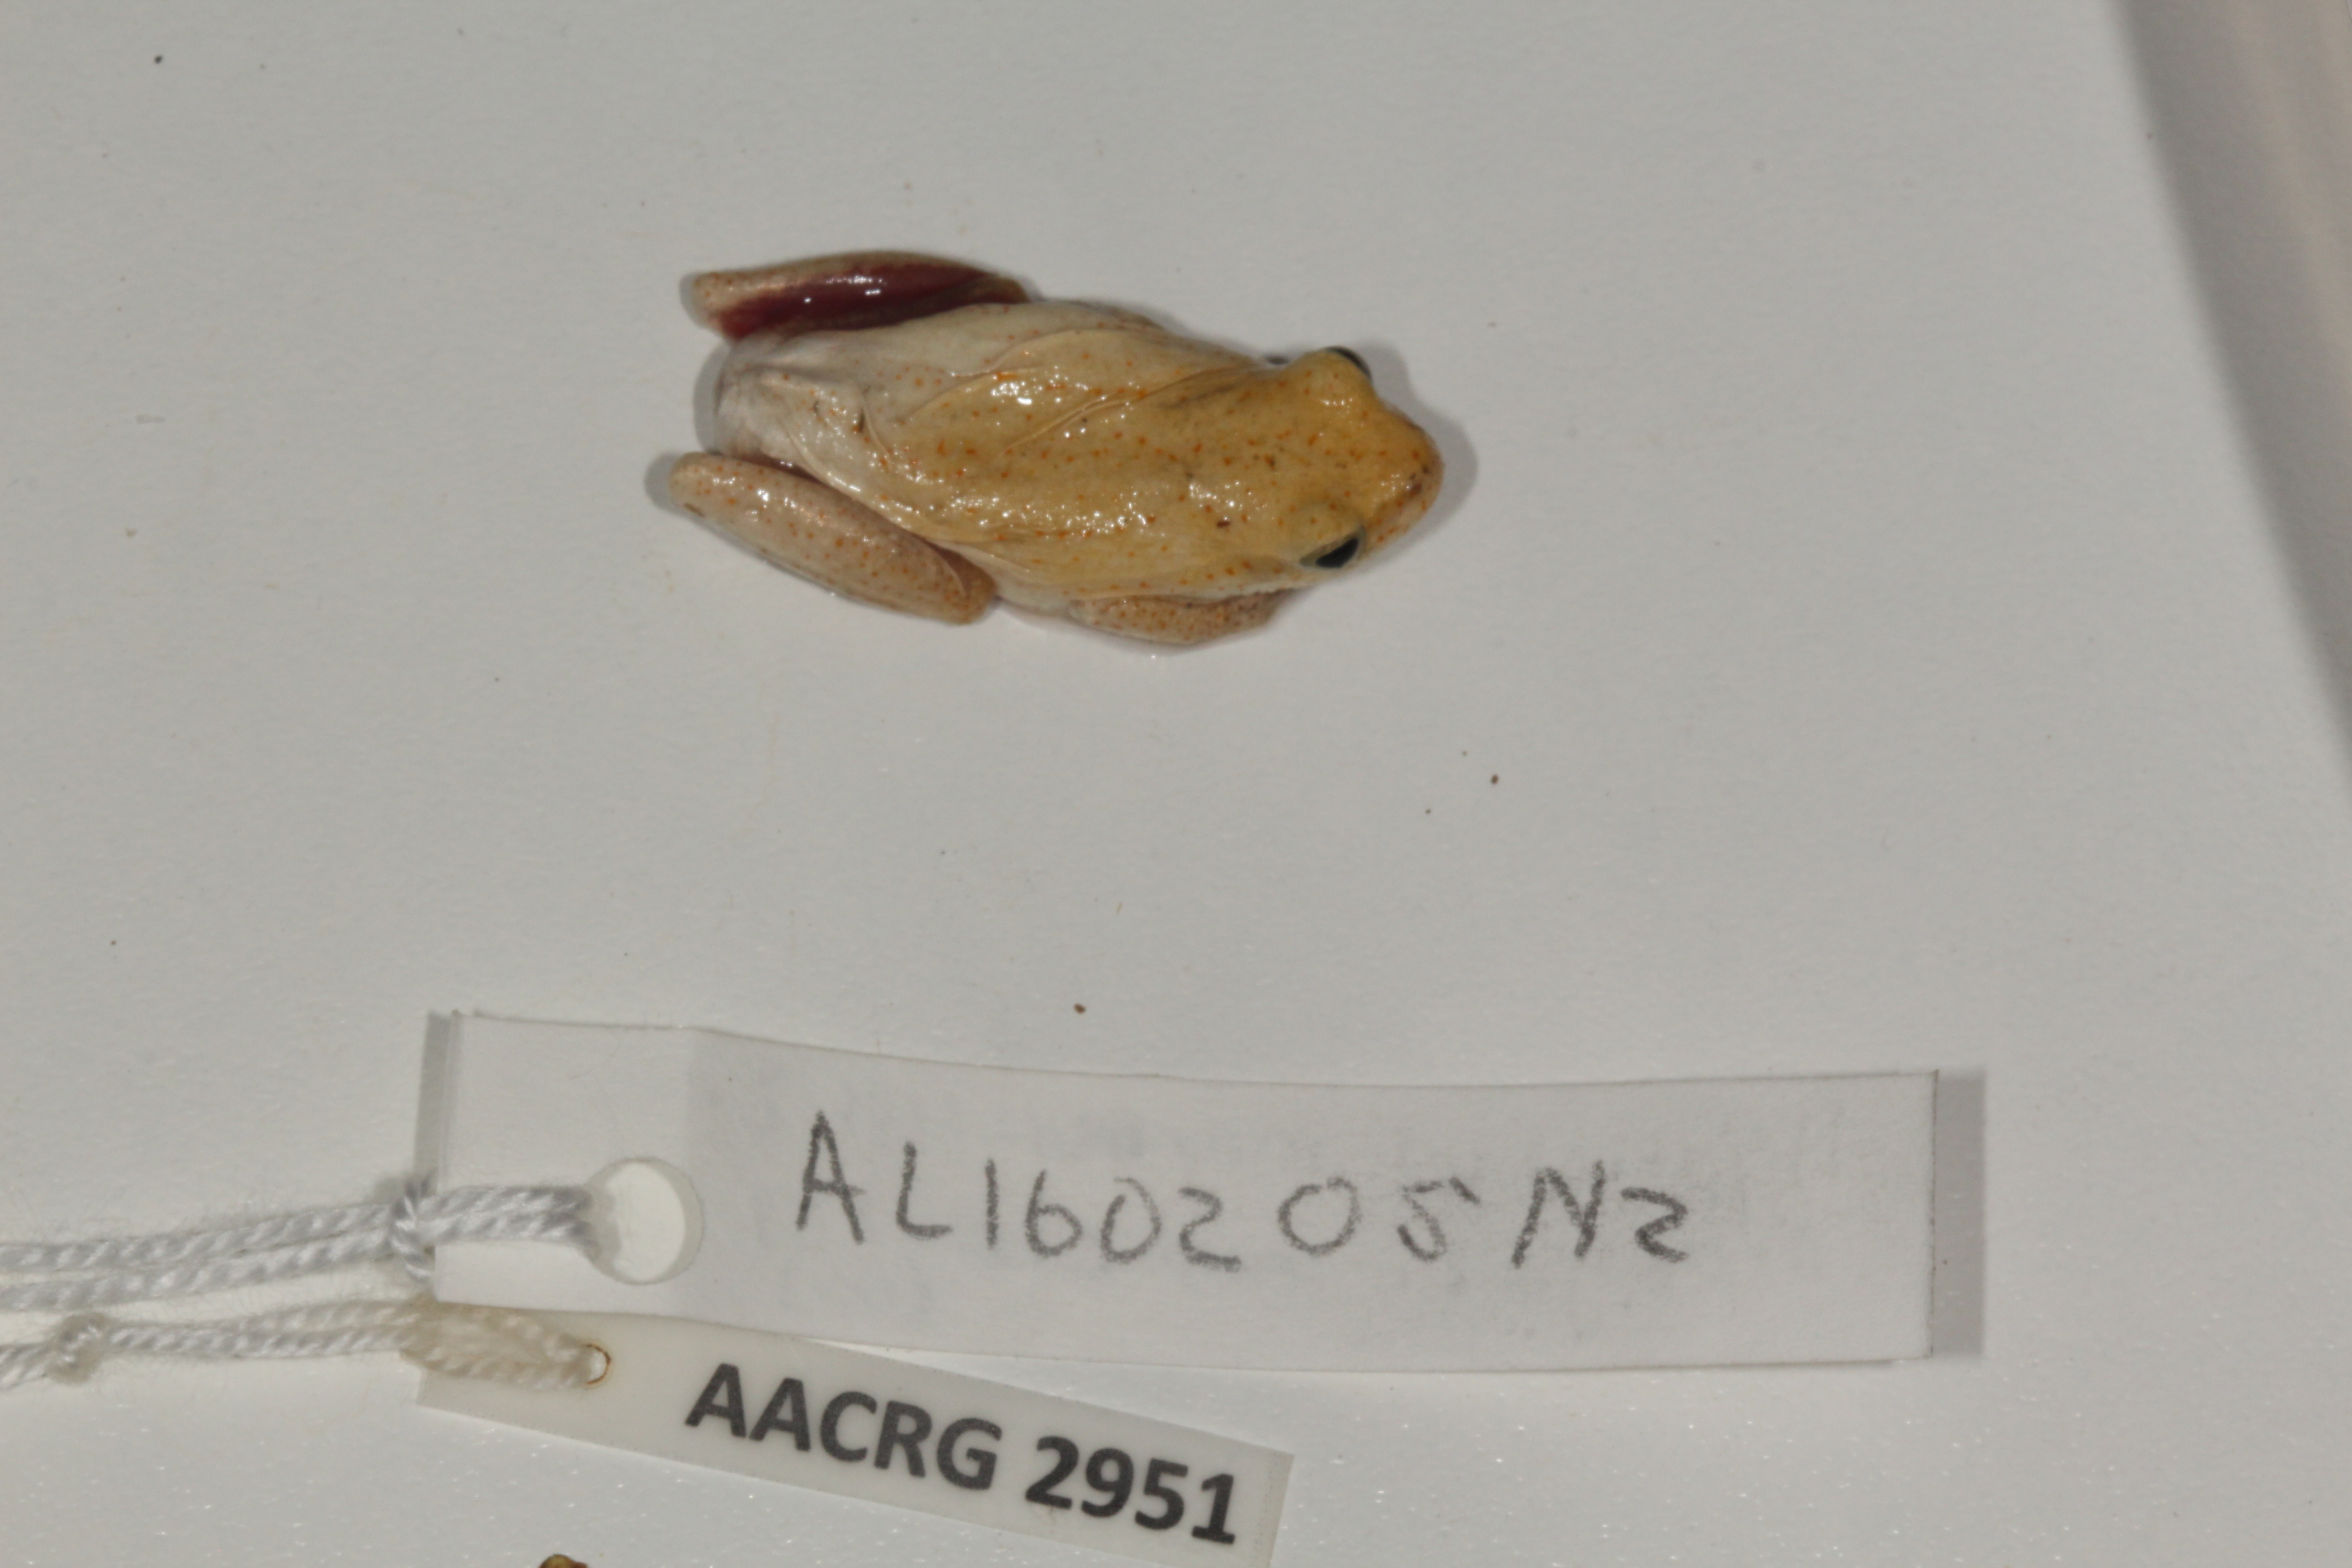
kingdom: Animalia
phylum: Chordata
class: Amphibia
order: Anura
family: Hyperoliidae
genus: Hyperolius
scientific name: Hyperolius marmoratus
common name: Painted reed frog
